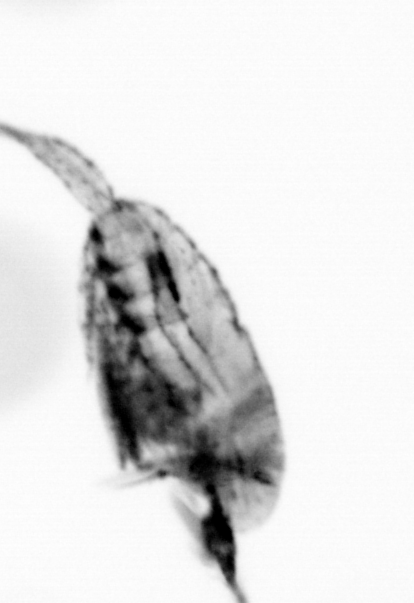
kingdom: Animalia
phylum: Arthropoda
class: Copepoda
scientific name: Copepoda
